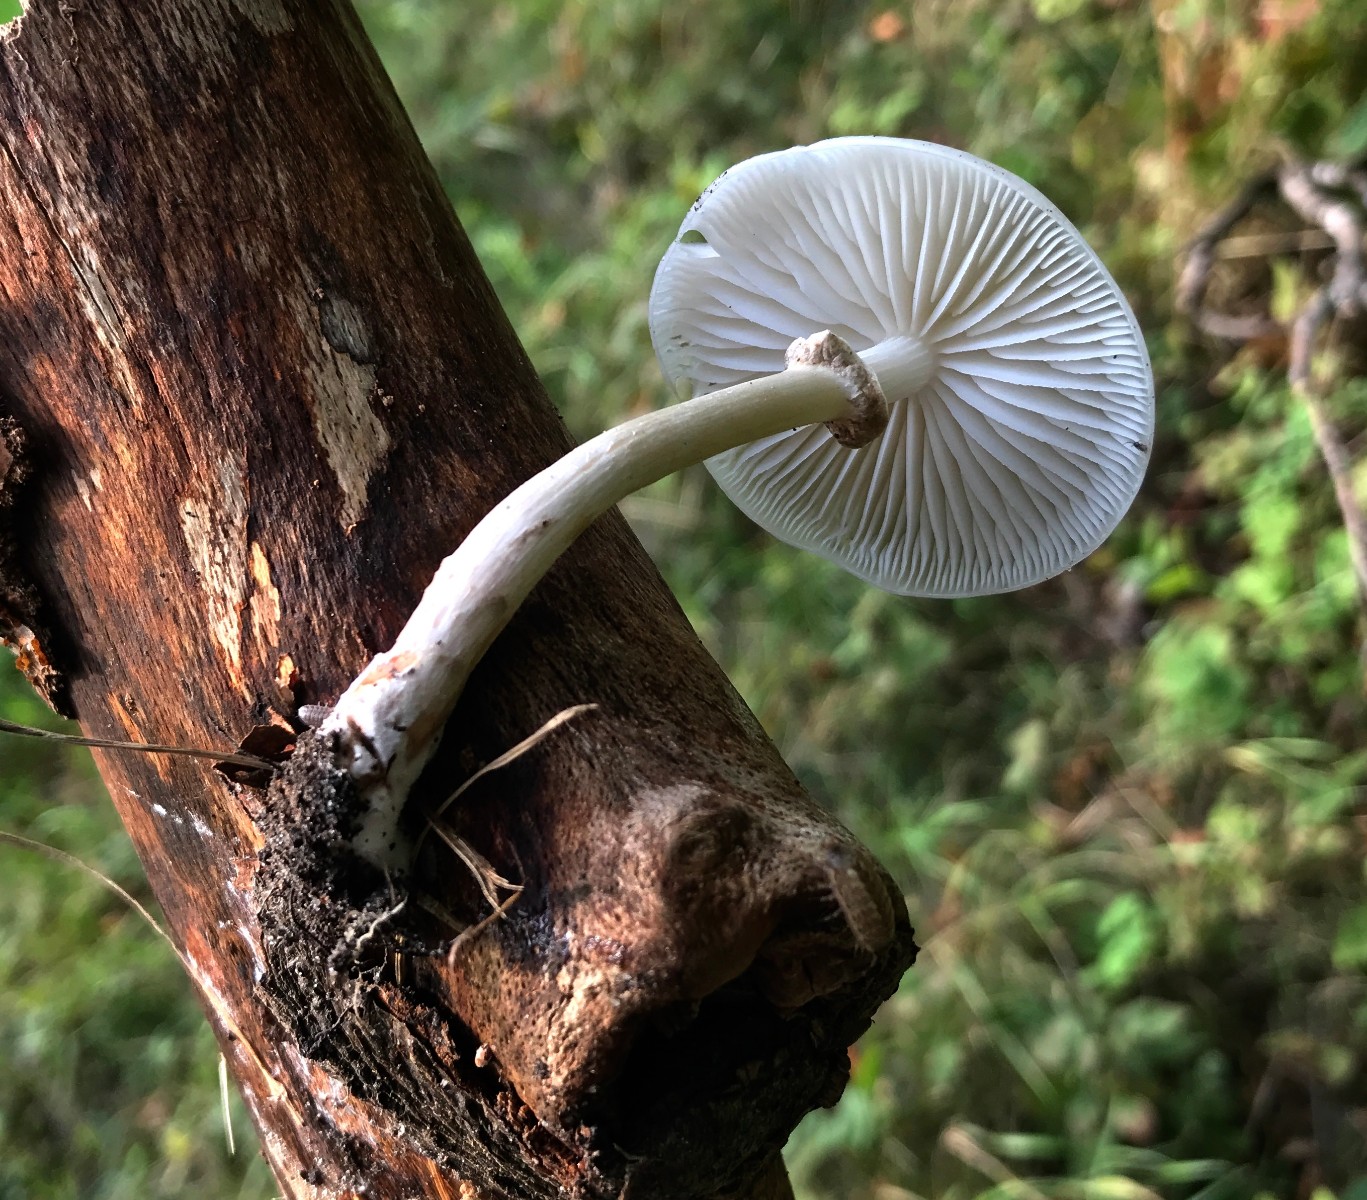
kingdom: Fungi
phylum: Basidiomycota
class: Agaricomycetes
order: Agaricales
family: Physalacriaceae
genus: Mucidula
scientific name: Mucidula mucida
